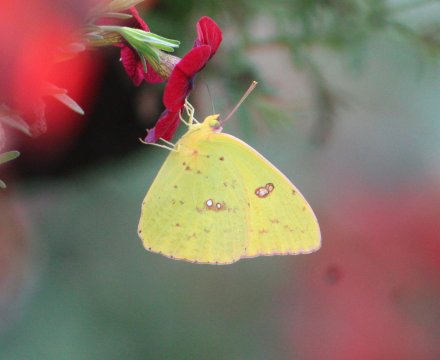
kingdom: Animalia
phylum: Arthropoda
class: Insecta
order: Lepidoptera
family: Pieridae
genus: Phoebis
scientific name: Phoebis sennae
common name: Cloudless Sulphur
